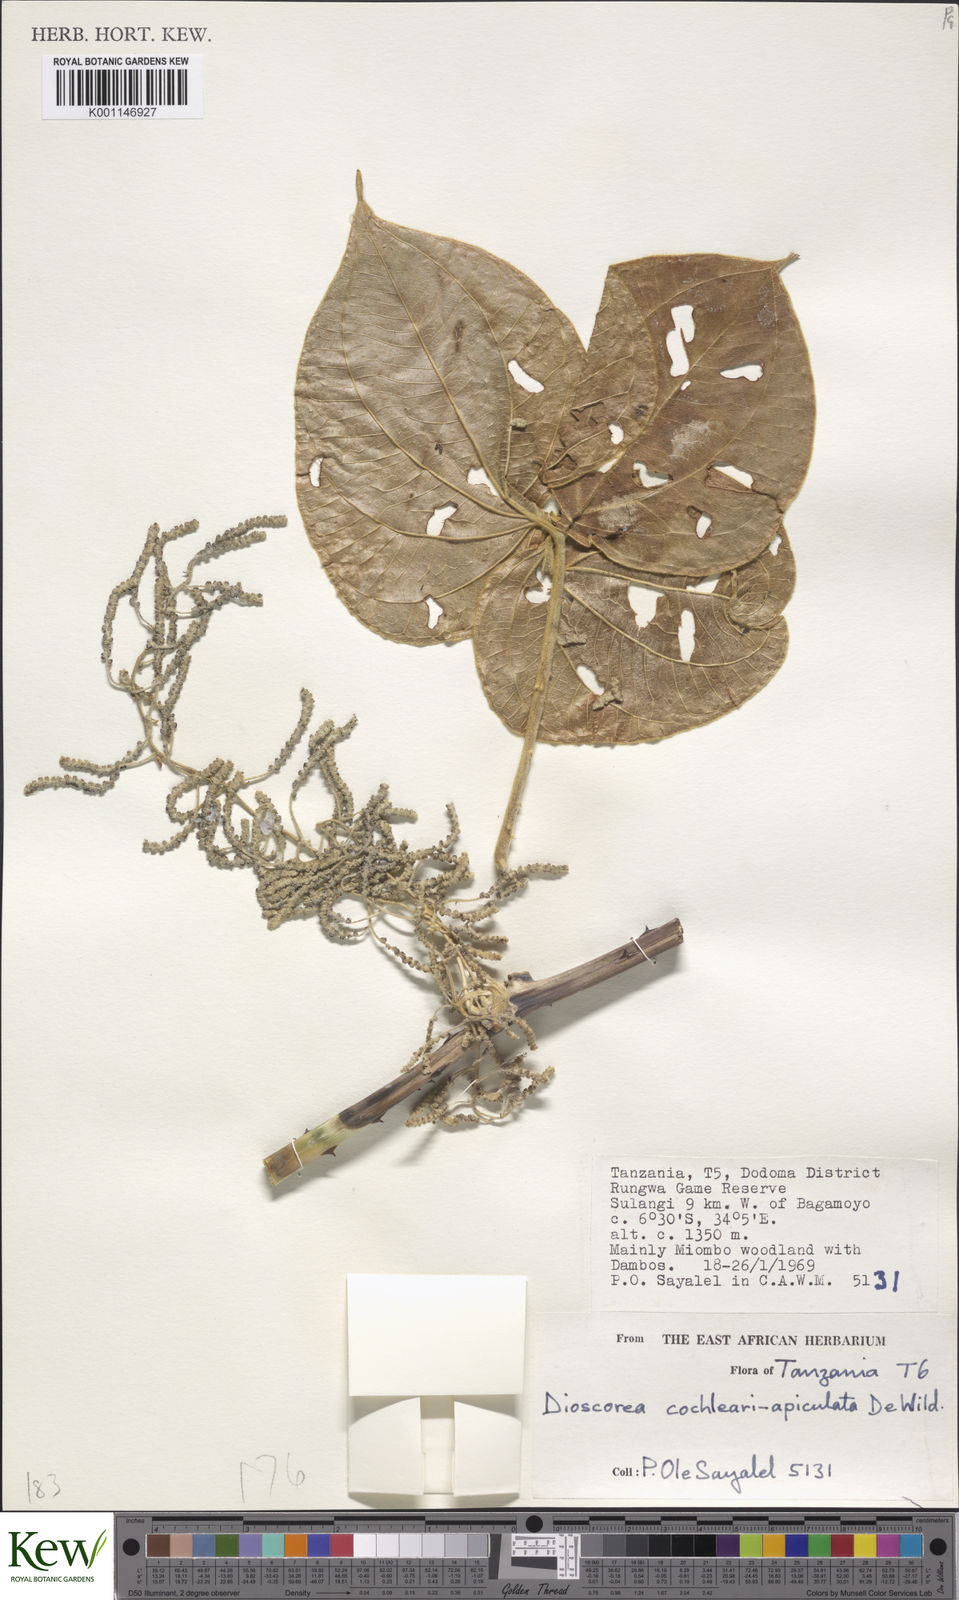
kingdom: Plantae
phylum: Tracheophyta
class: Liliopsida
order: Dioscoreales
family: Dioscoreaceae
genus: Dioscorea
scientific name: Dioscorea cochleariapiculata
